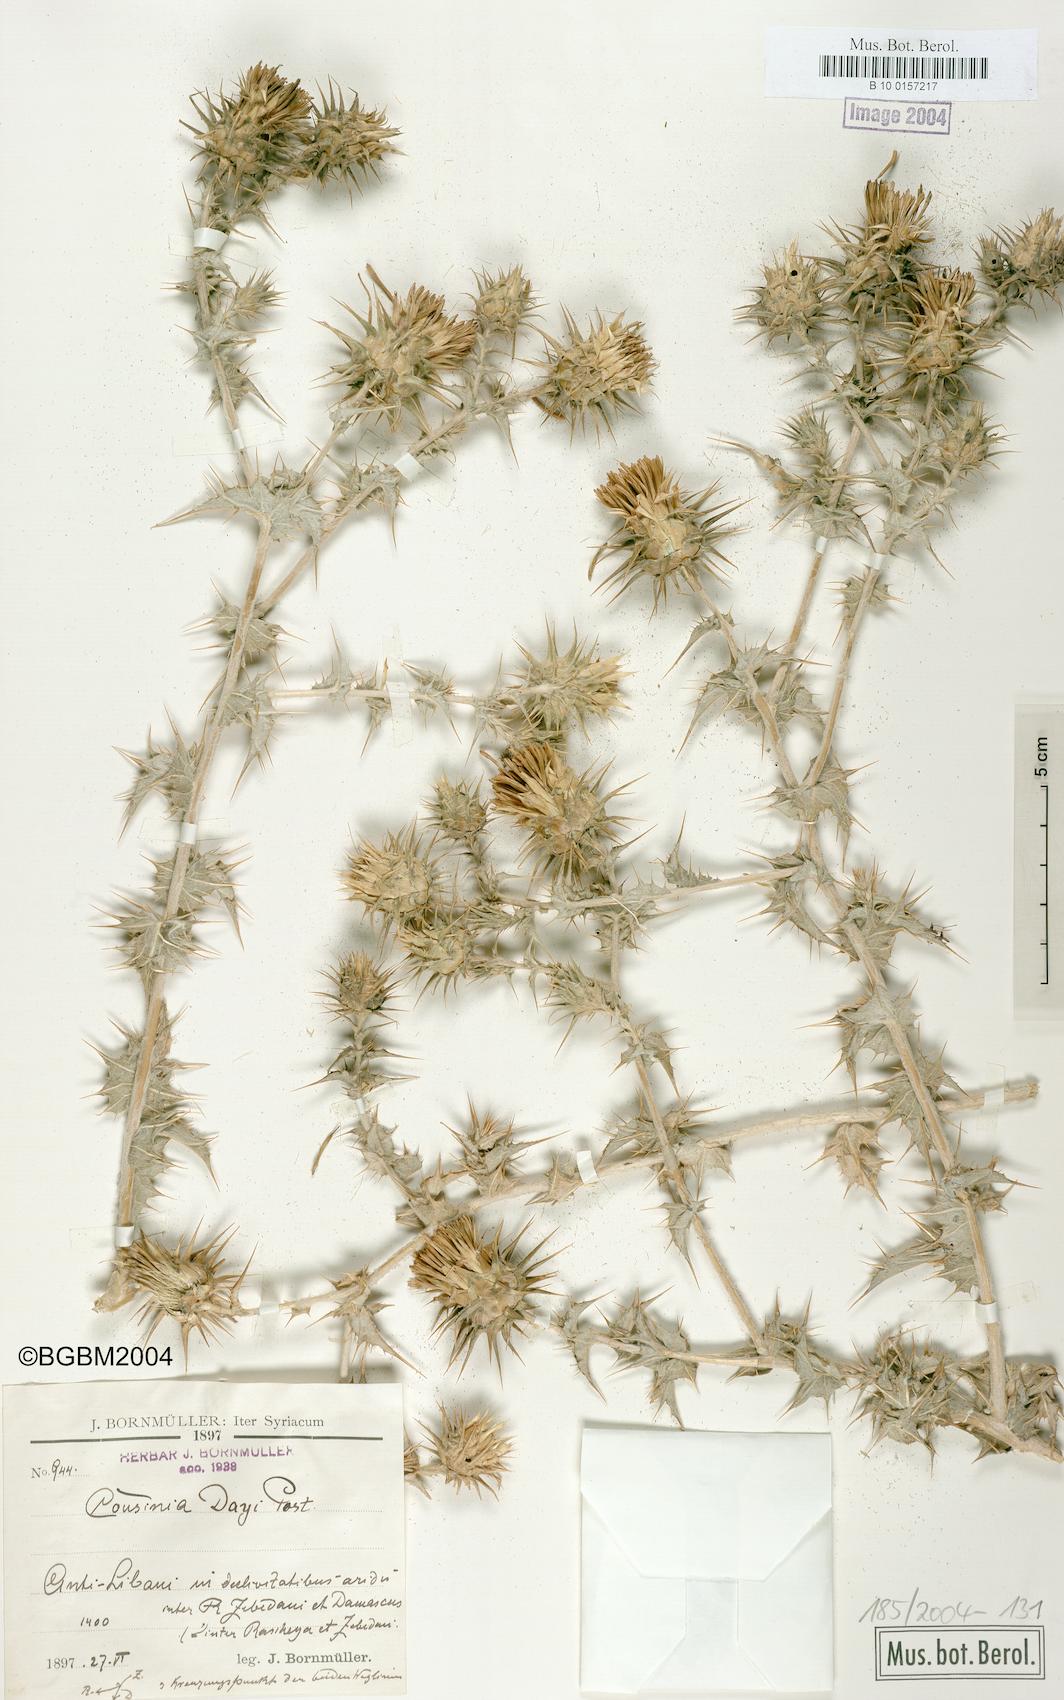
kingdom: Plantae
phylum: Tracheophyta
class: Magnoliopsida
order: Asterales
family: Asteraceae
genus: Cousinia
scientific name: Cousinia libanotica
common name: Lebanon cousinia
